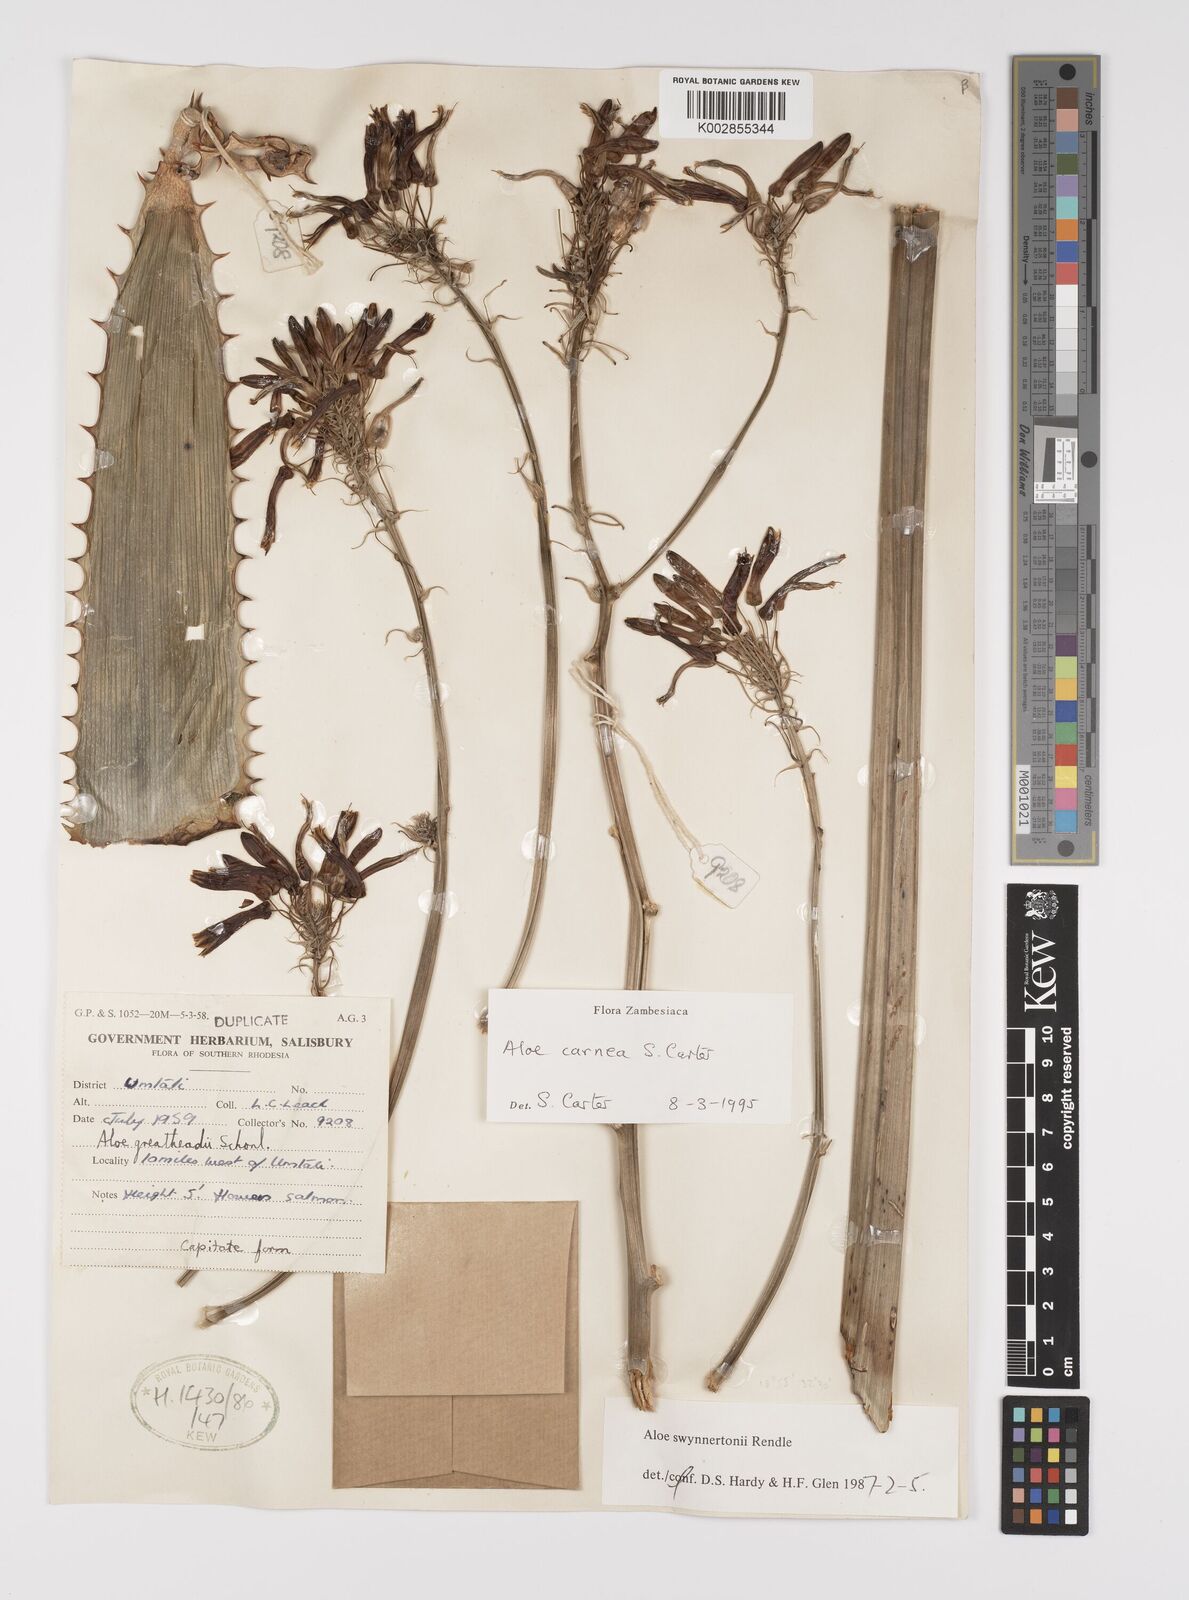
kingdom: Plantae
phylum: Tracheophyta
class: Liliopsida
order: Asparagales
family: Asphodelaceae
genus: Aloe
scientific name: Aloe carnea
